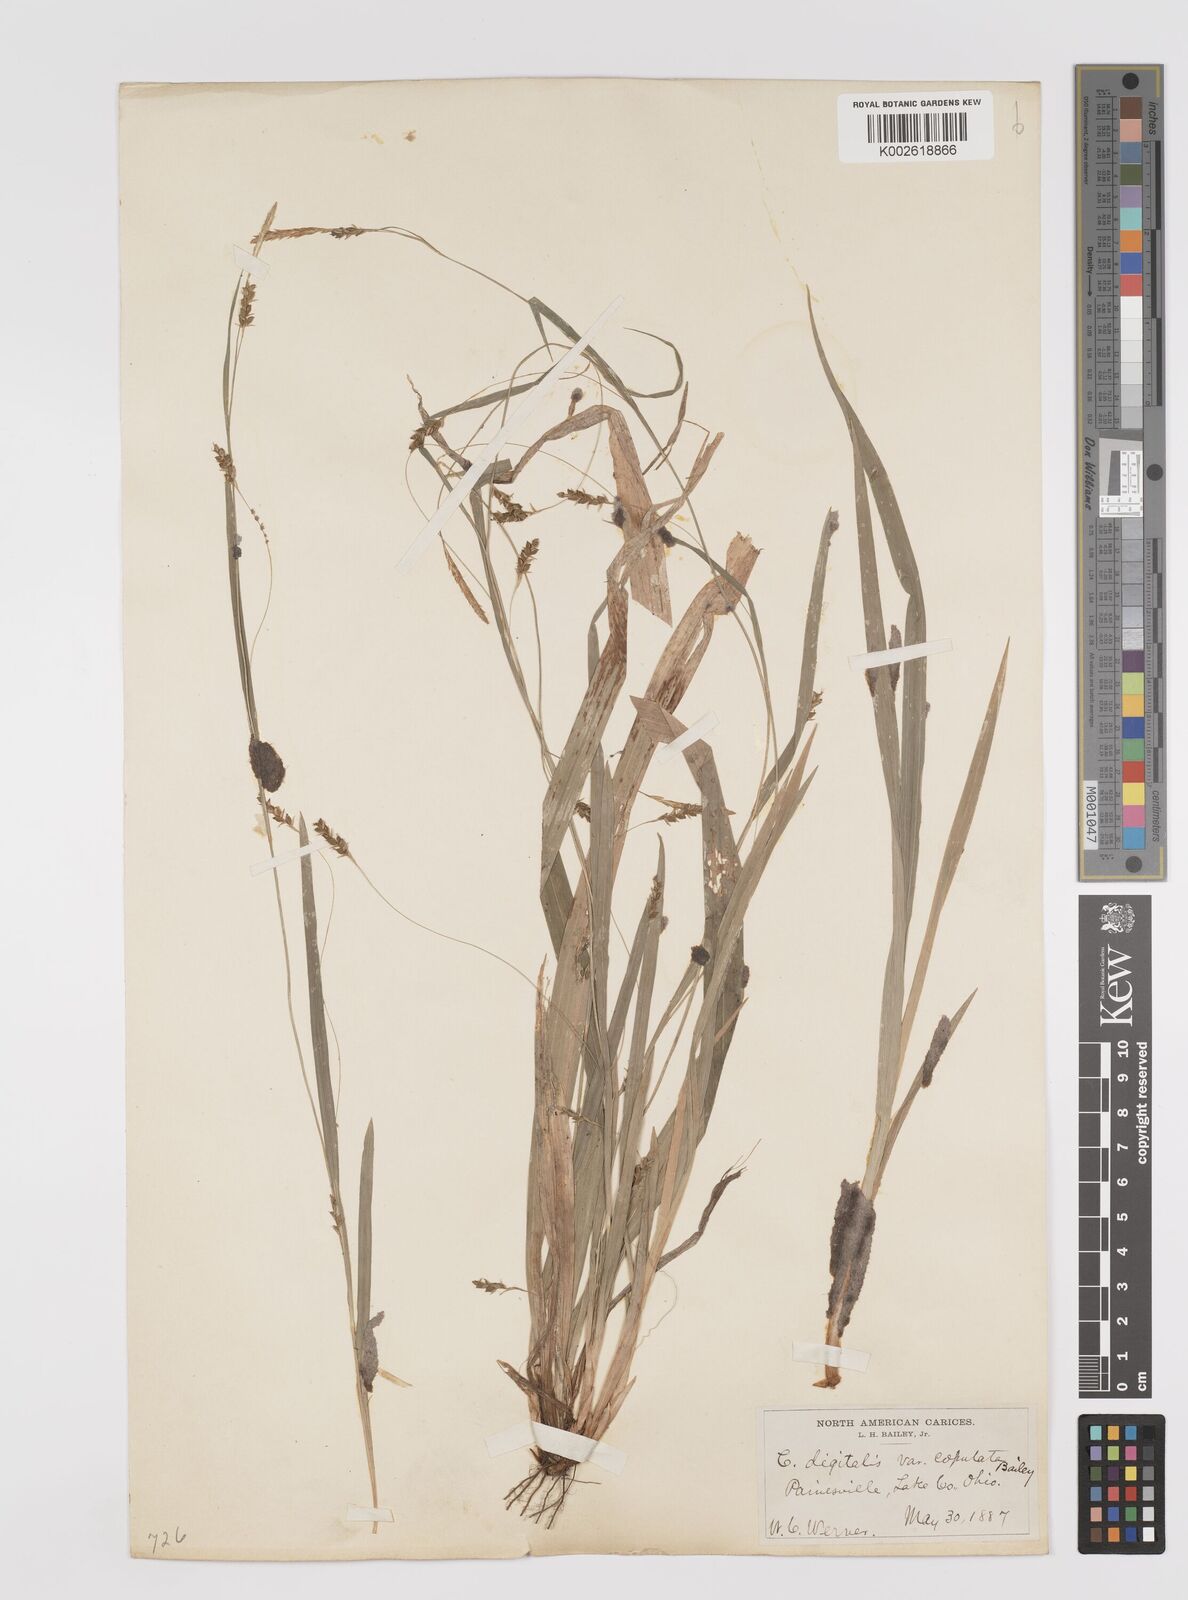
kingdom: Plantae
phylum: Tracheophyta
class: Liliopsida
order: Poales
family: Cyperaceae
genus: Carex
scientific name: Carex laxiculmis
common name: Spreading sedge
